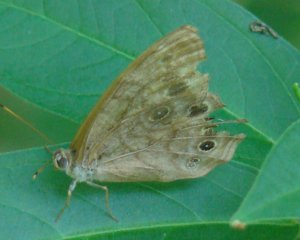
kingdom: Animalia
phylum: Arthropoda
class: Insecta
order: Lepidoptera
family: Nymphalidae
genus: Lethe
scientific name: Lethe anthedon
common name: Northern Pearly-Eye
